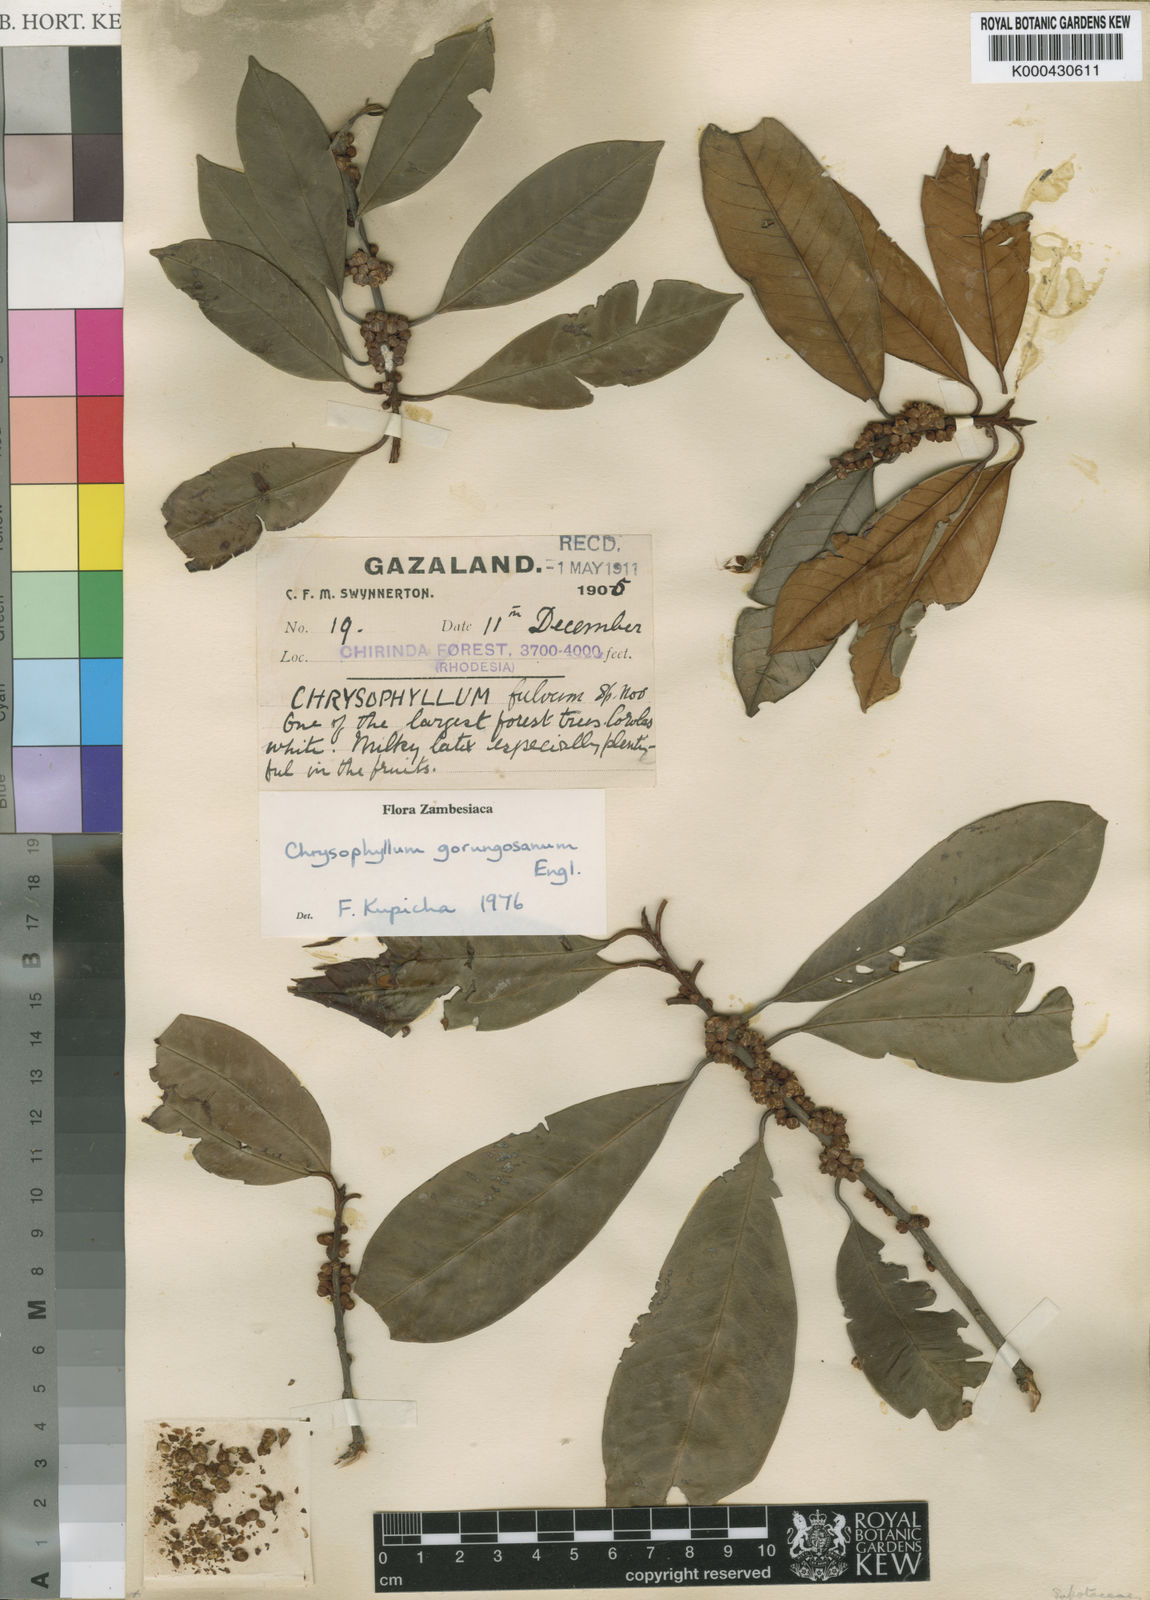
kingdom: Plantae
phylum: Tracheophyta
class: Magnoliopsida
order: Ericales
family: Sapotaceae
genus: Gambeya
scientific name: Gambeya gorungosana
